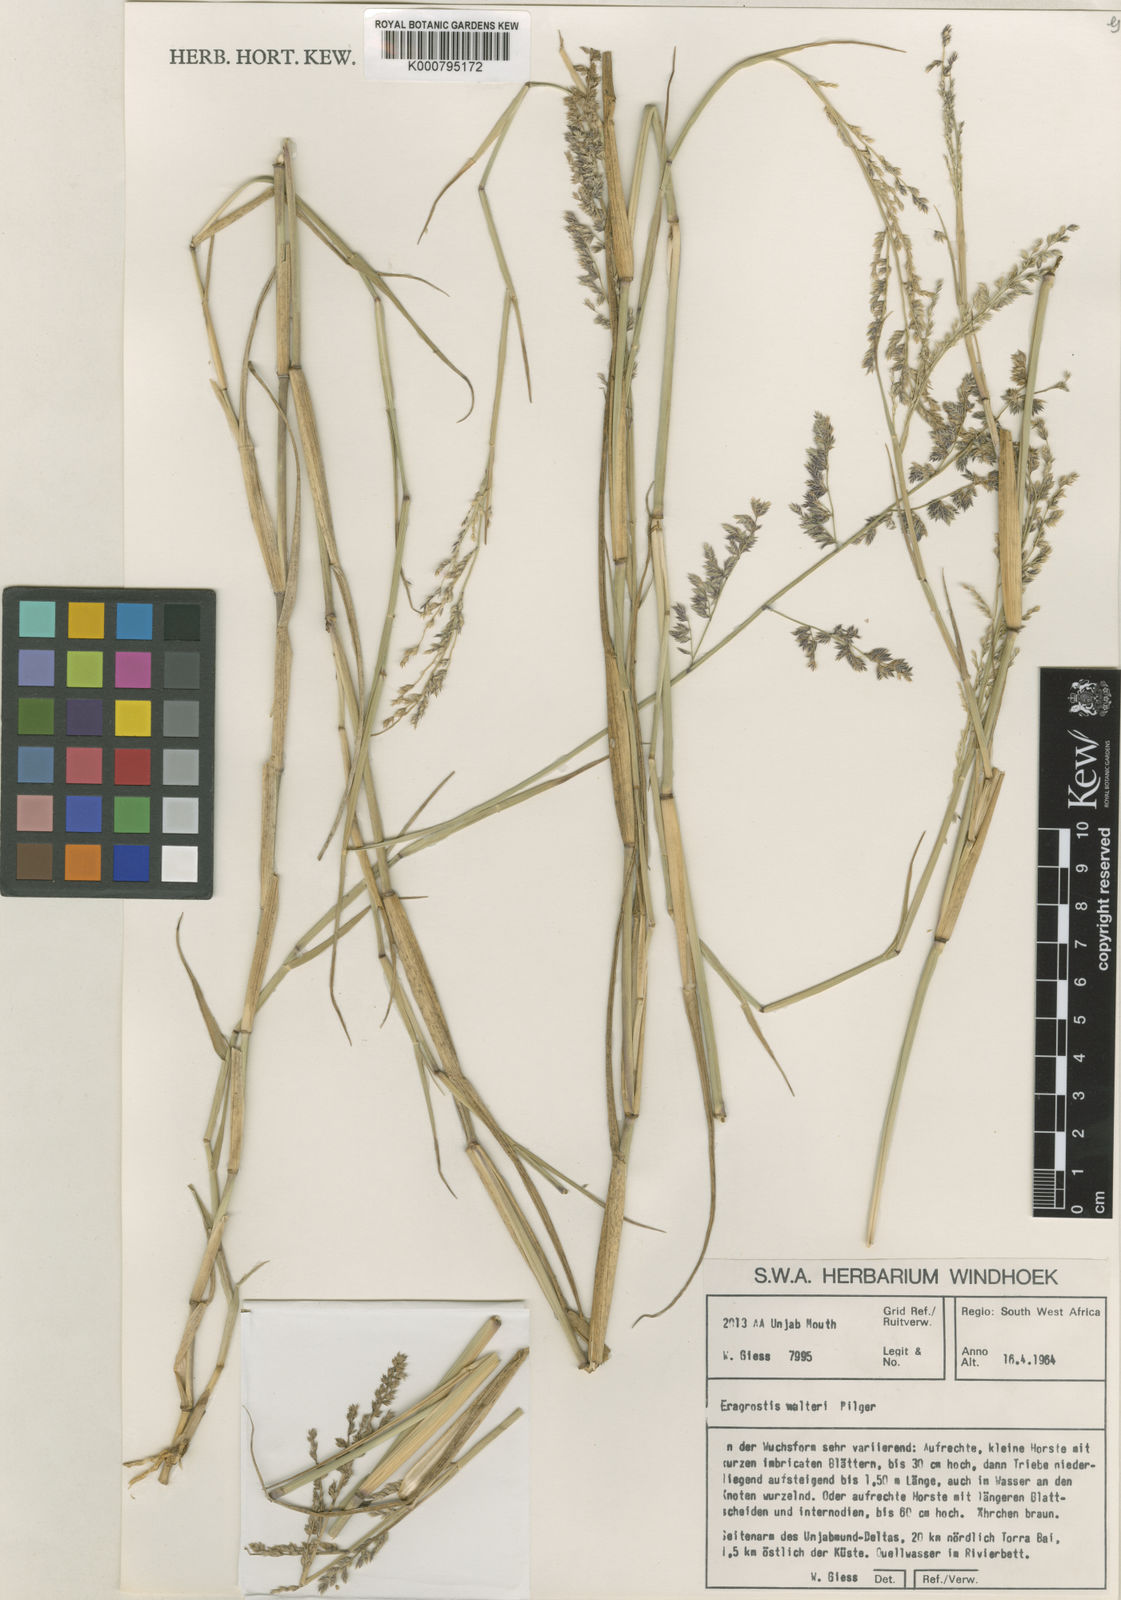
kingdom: Plantae
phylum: Tracheophyta
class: Liliopsida
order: Poales
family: Poaceae
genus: Pratochloa
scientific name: Pratochloa walteri
